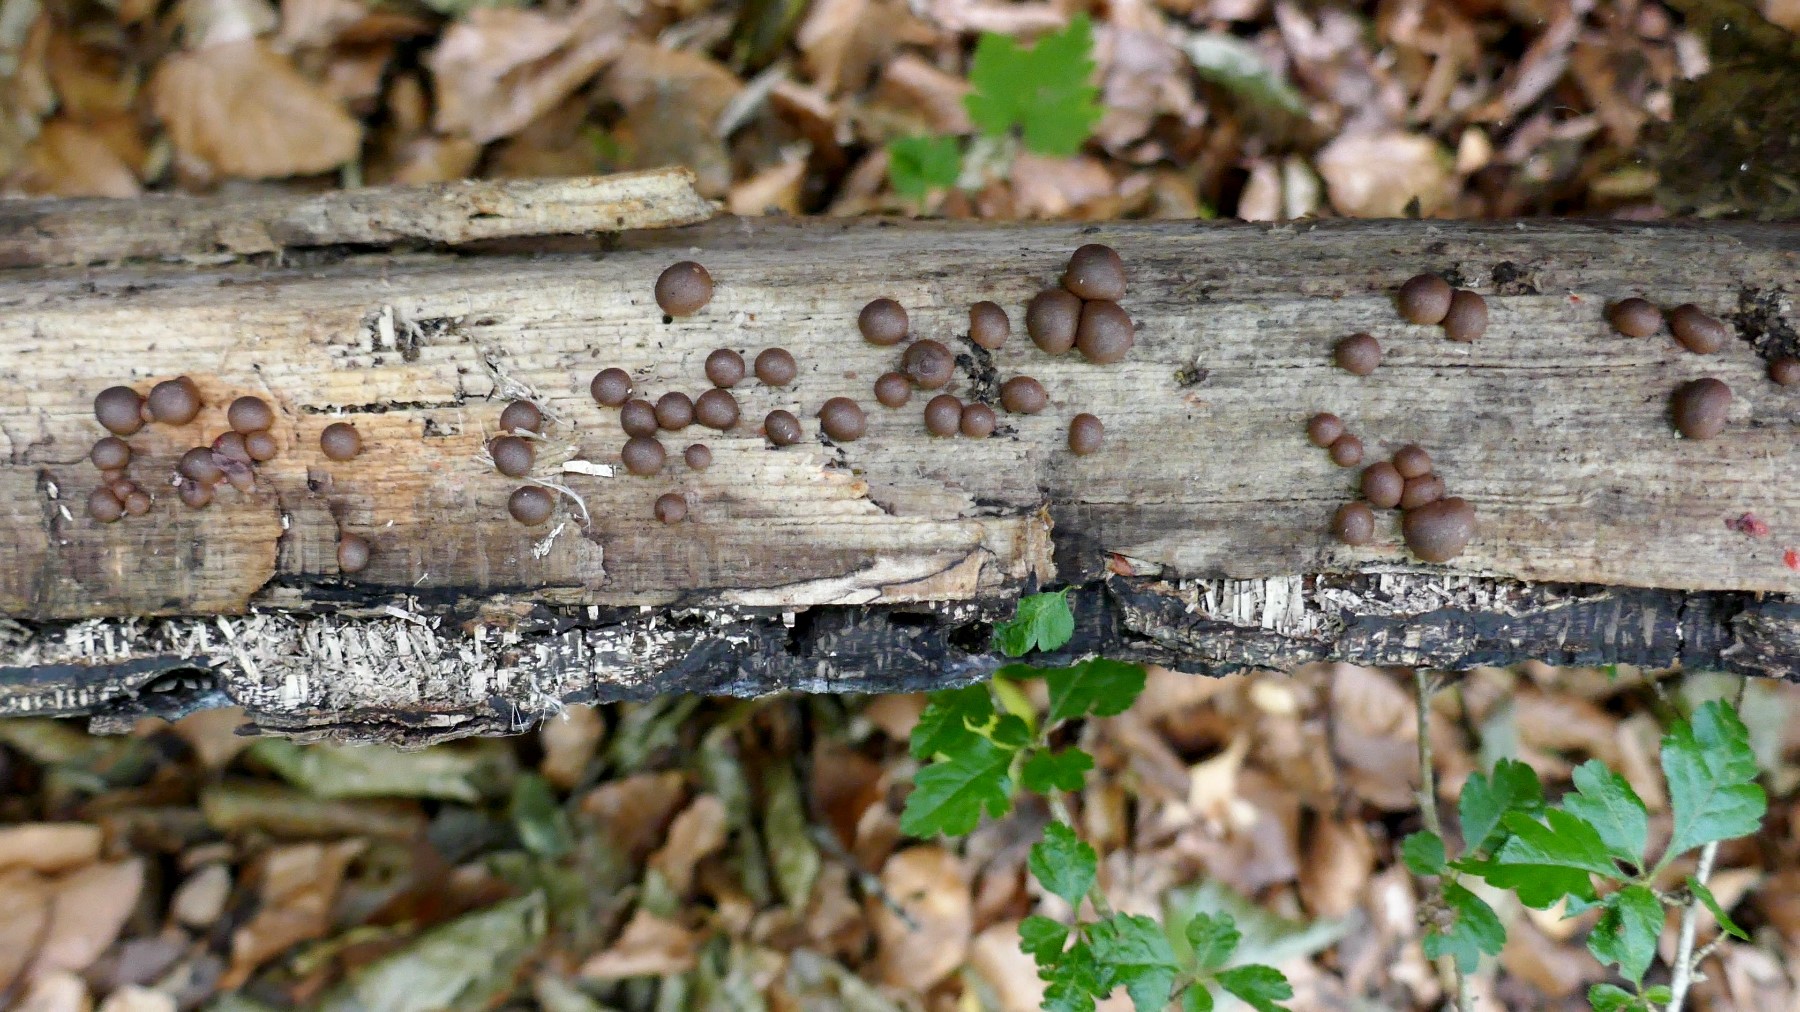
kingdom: Protozoa
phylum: Mycetozoa
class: Myxomycetes
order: Cribrariales
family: Tubiferaceae
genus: Lycogala
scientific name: Lycogala epidendrum
